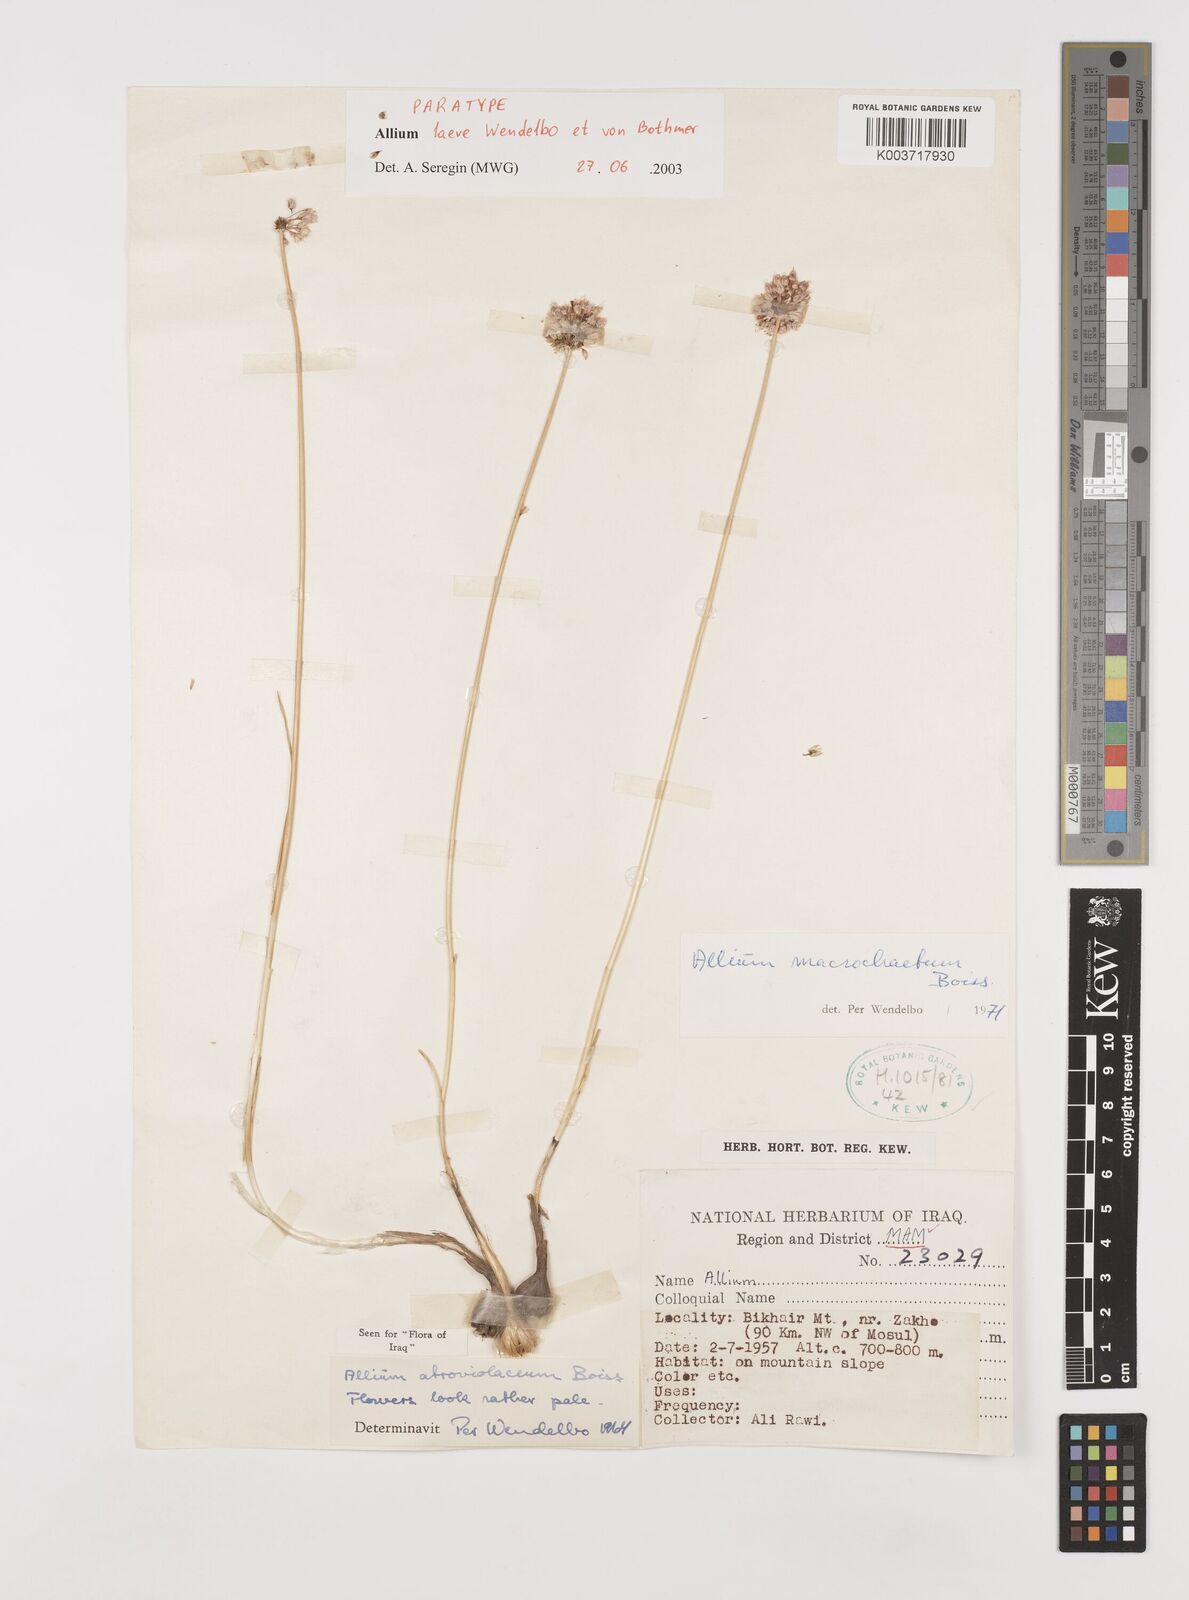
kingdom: Plantae
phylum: Tracheophyta
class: Liliopsida
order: Asparagales
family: Amaryllidaceae
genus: Allium
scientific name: Allium macrochaetum
